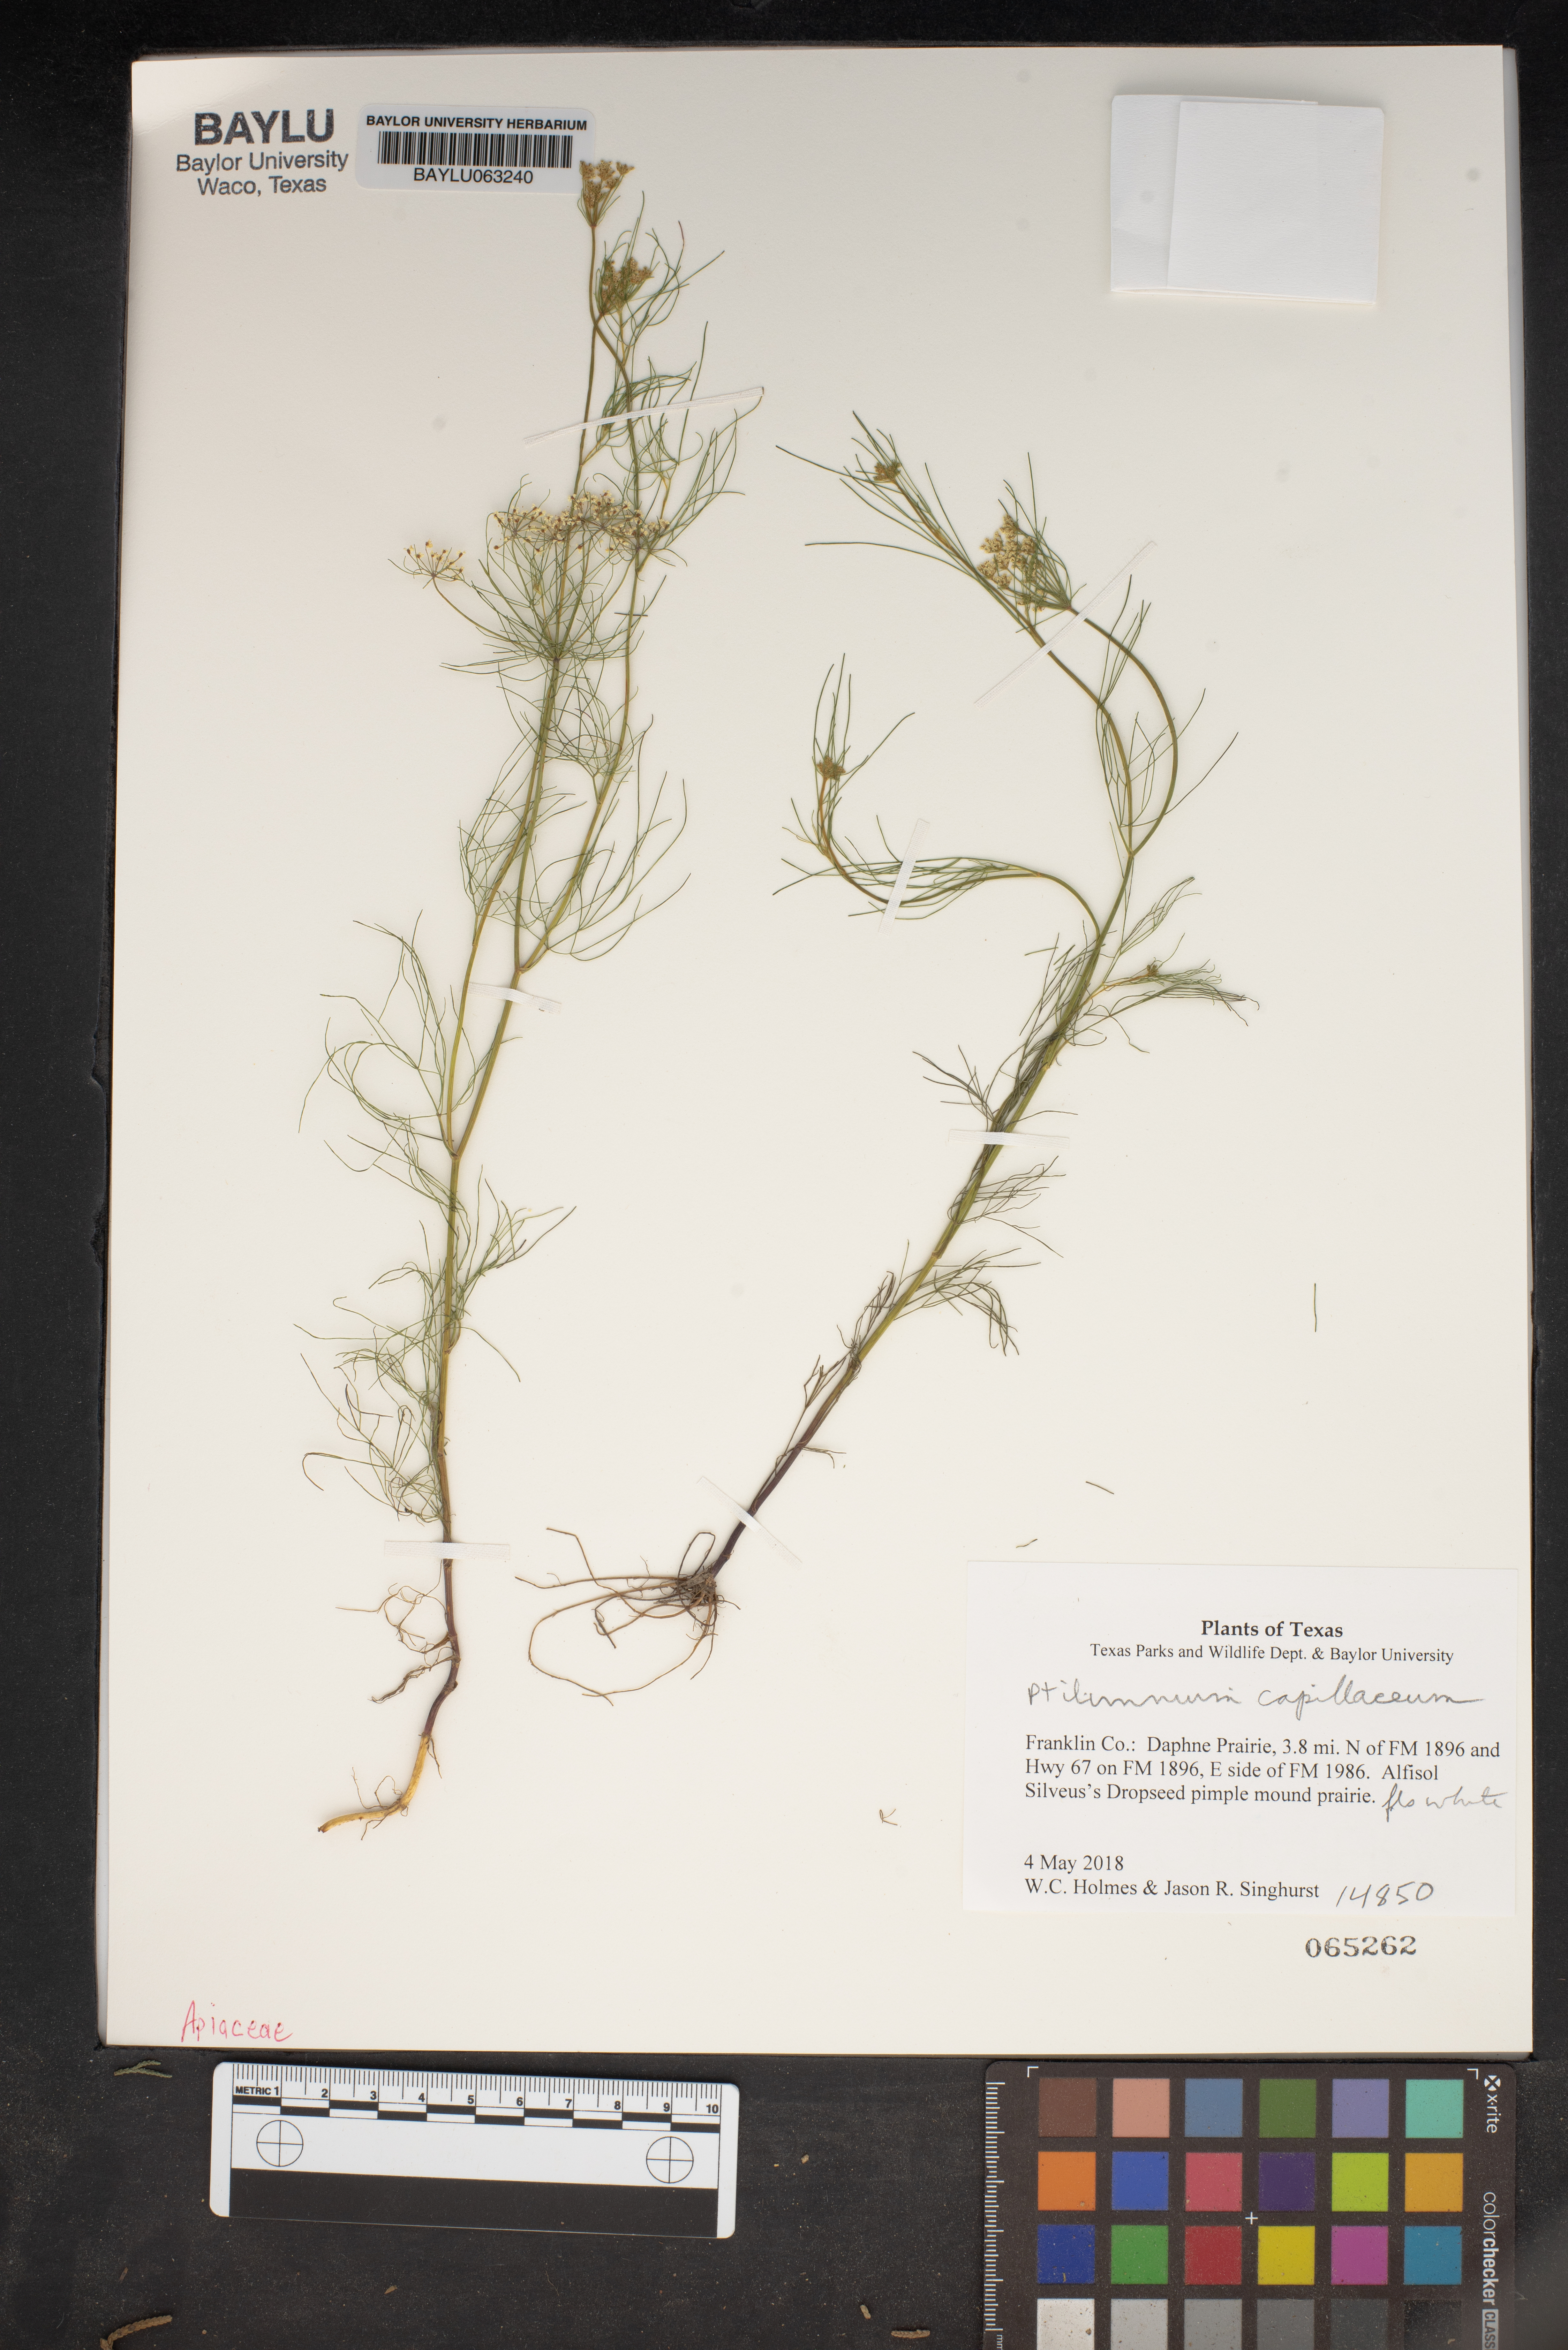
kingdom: Plantae
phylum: Tracheophyta
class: Magnoliopsida
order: Apiales
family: Apiaceae
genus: Ptilimnium
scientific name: Ptilimnium capillaceum
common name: Herbwilliam
